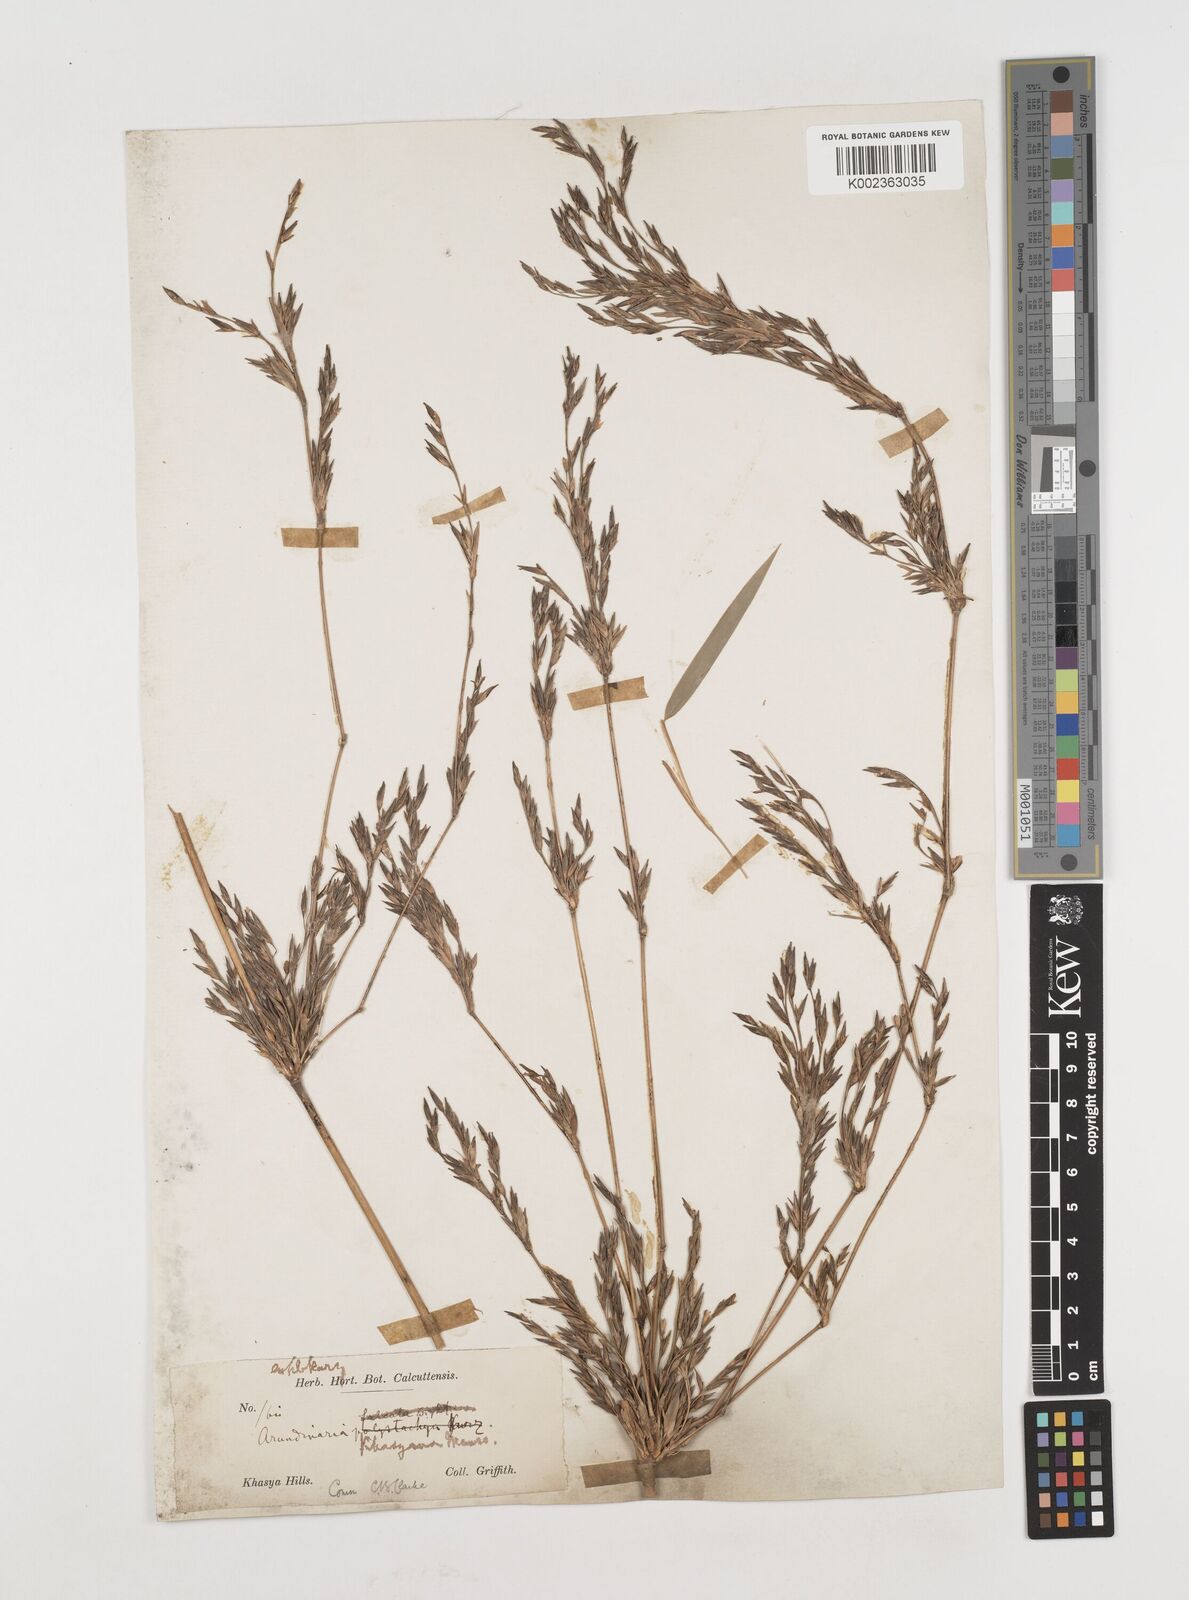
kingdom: Plantae
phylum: Tracheophyta
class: Liliopsida
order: Poales
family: Poaceae
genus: Drepanostachyum
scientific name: Drepanostachyum khasianum
